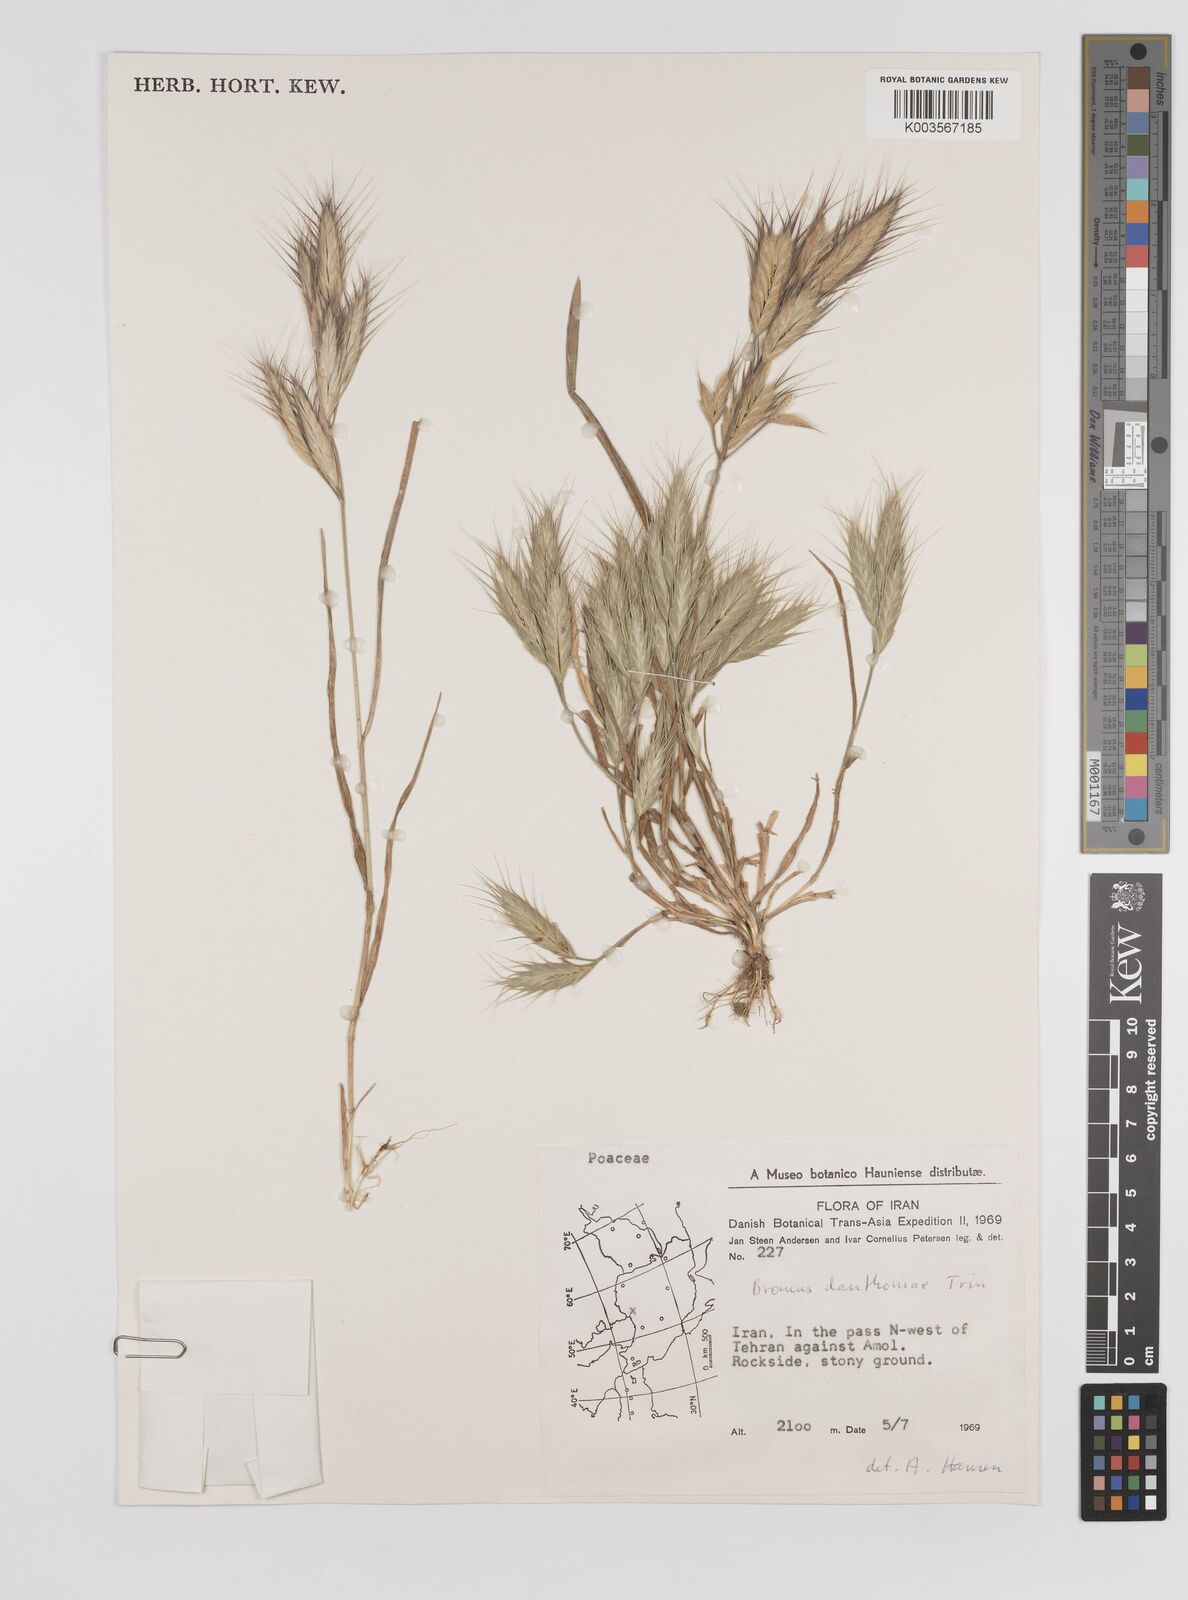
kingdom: Plantae
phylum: Tracheophyta
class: Liliopsida
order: Poales
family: Poaceae
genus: Bromus
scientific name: Bromus danthoniae
